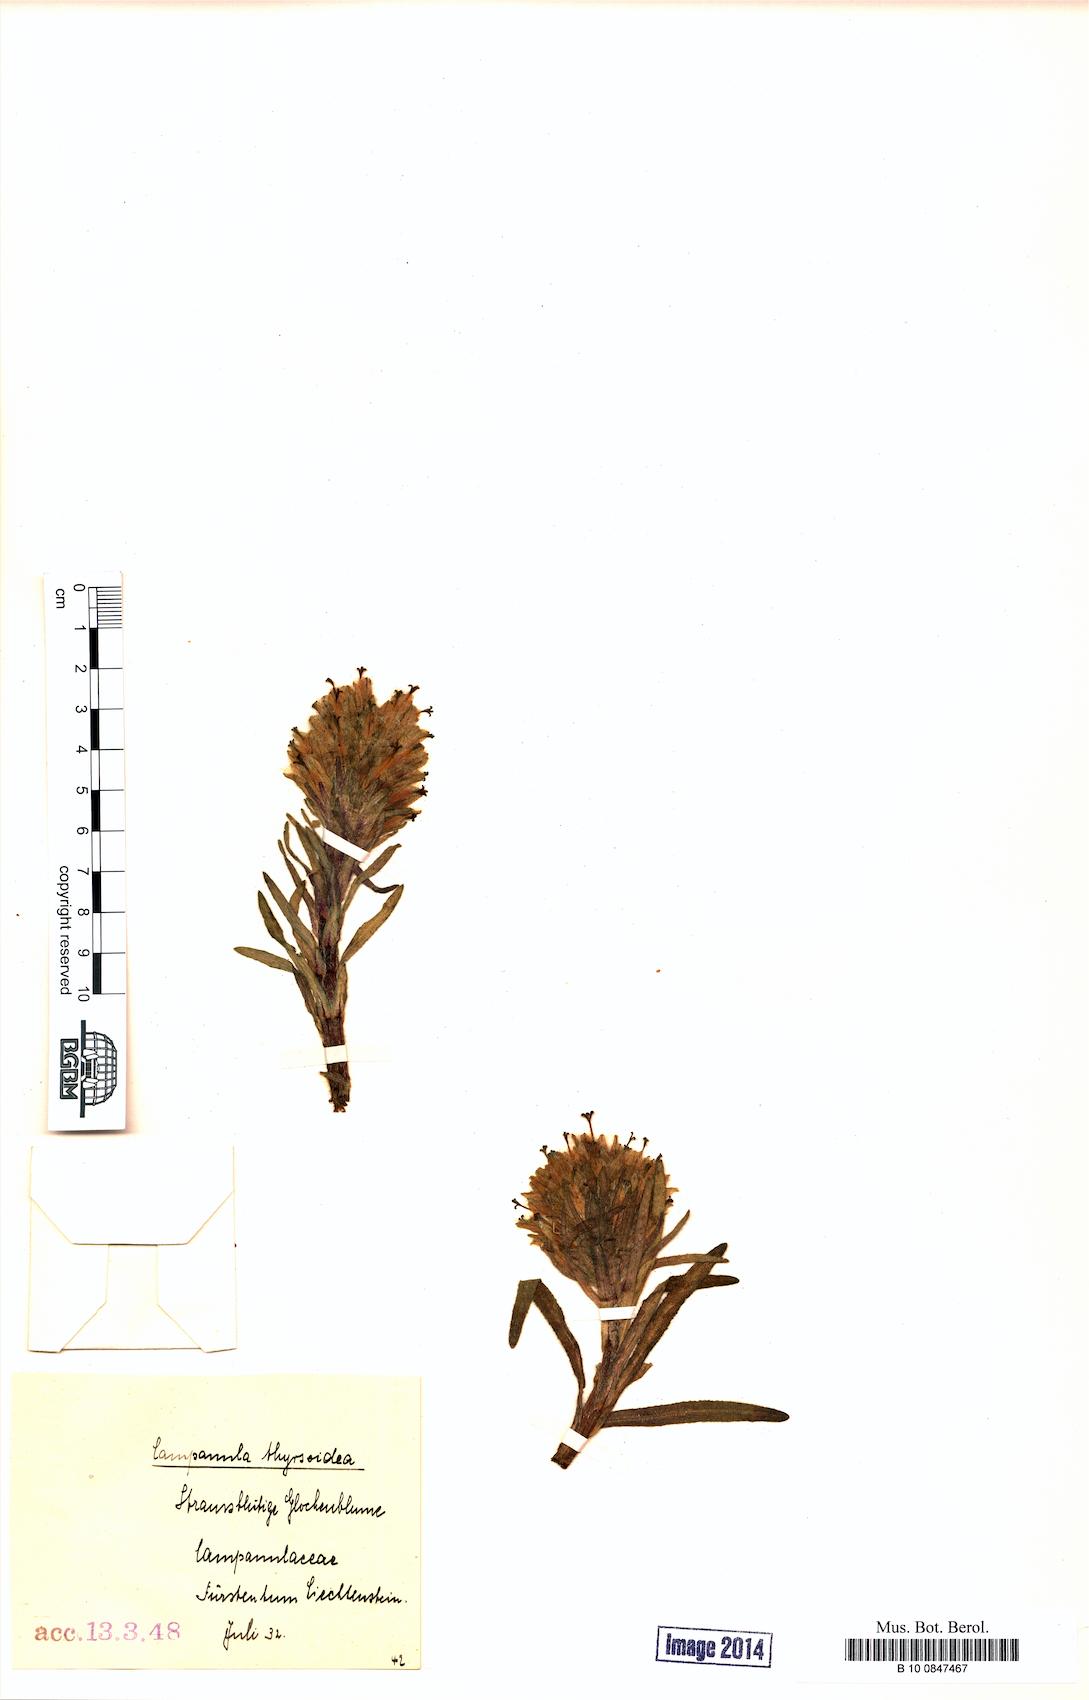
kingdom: Plantae
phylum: Tracheophyta
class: Magnoliopsida
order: Asterales
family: Campanulaceae
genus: Campanula
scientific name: Campanula thyrsoides
